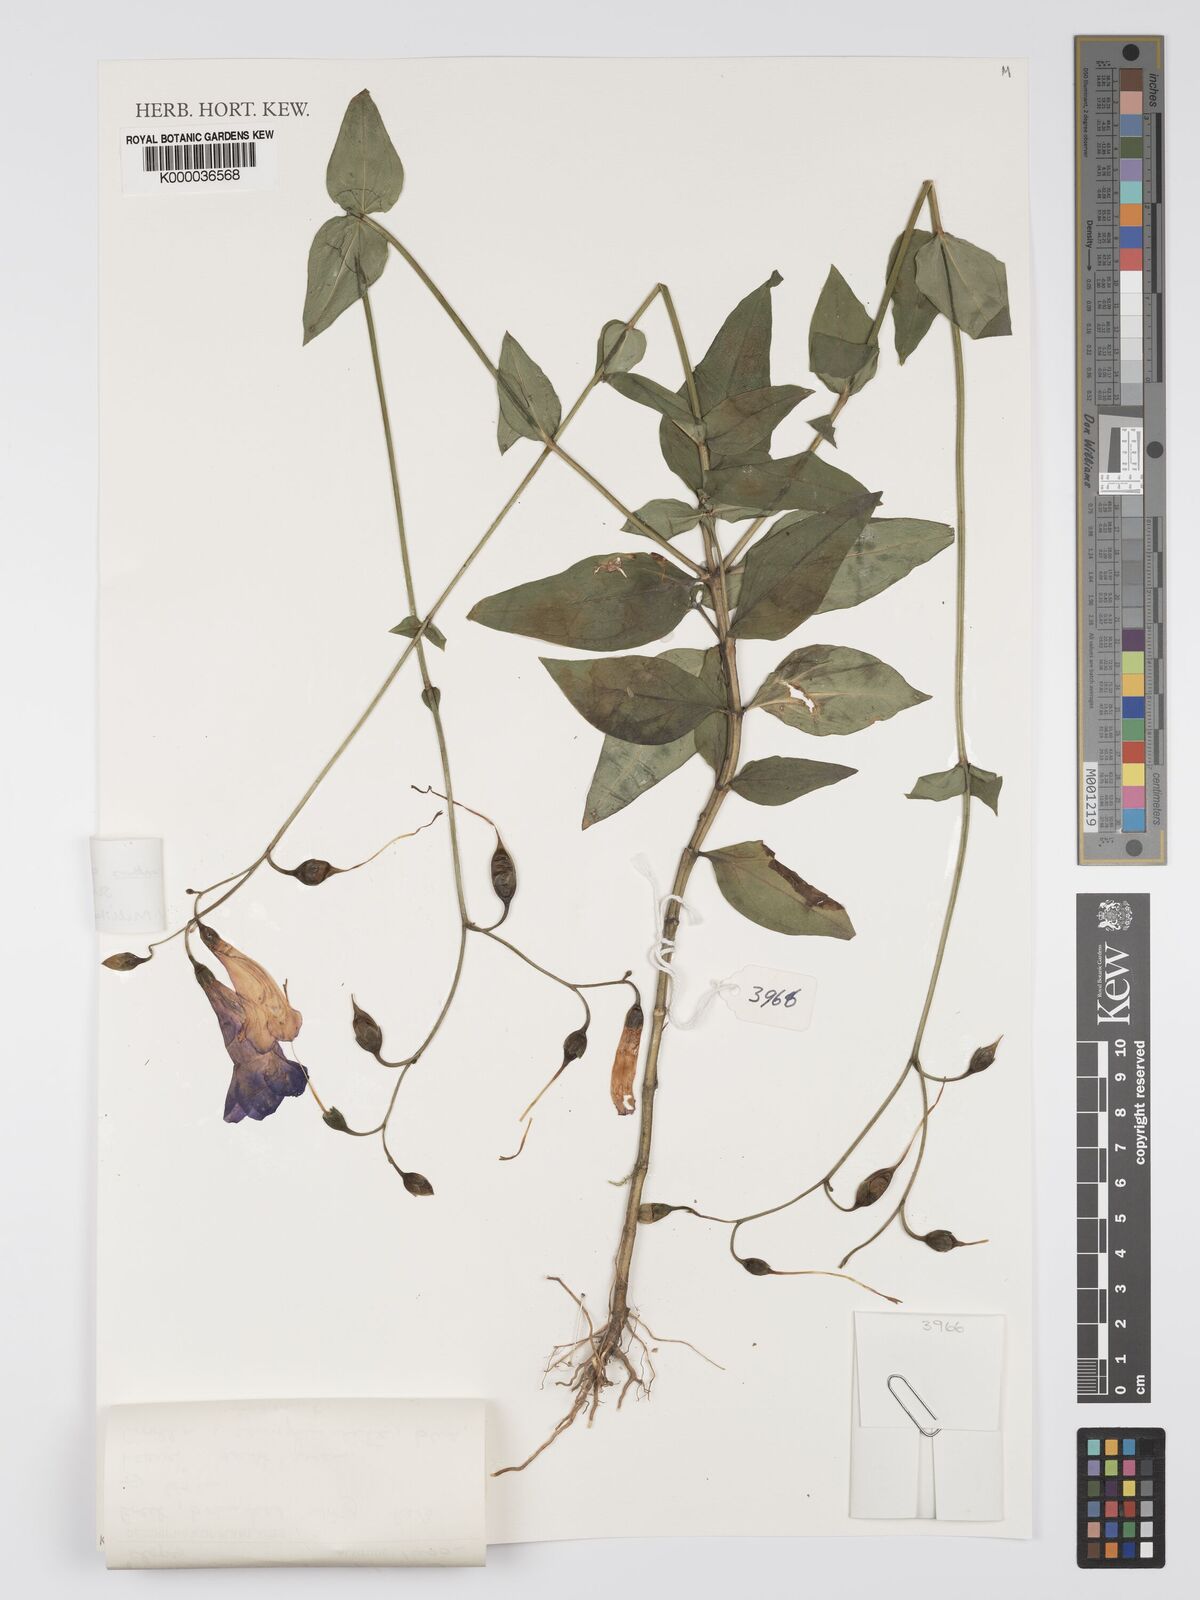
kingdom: Plantae
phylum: Tracheophyta
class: Magnoliopsida
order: Gentianales
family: Gentianaceae
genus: Chelonanthus
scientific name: Chelonanthus
